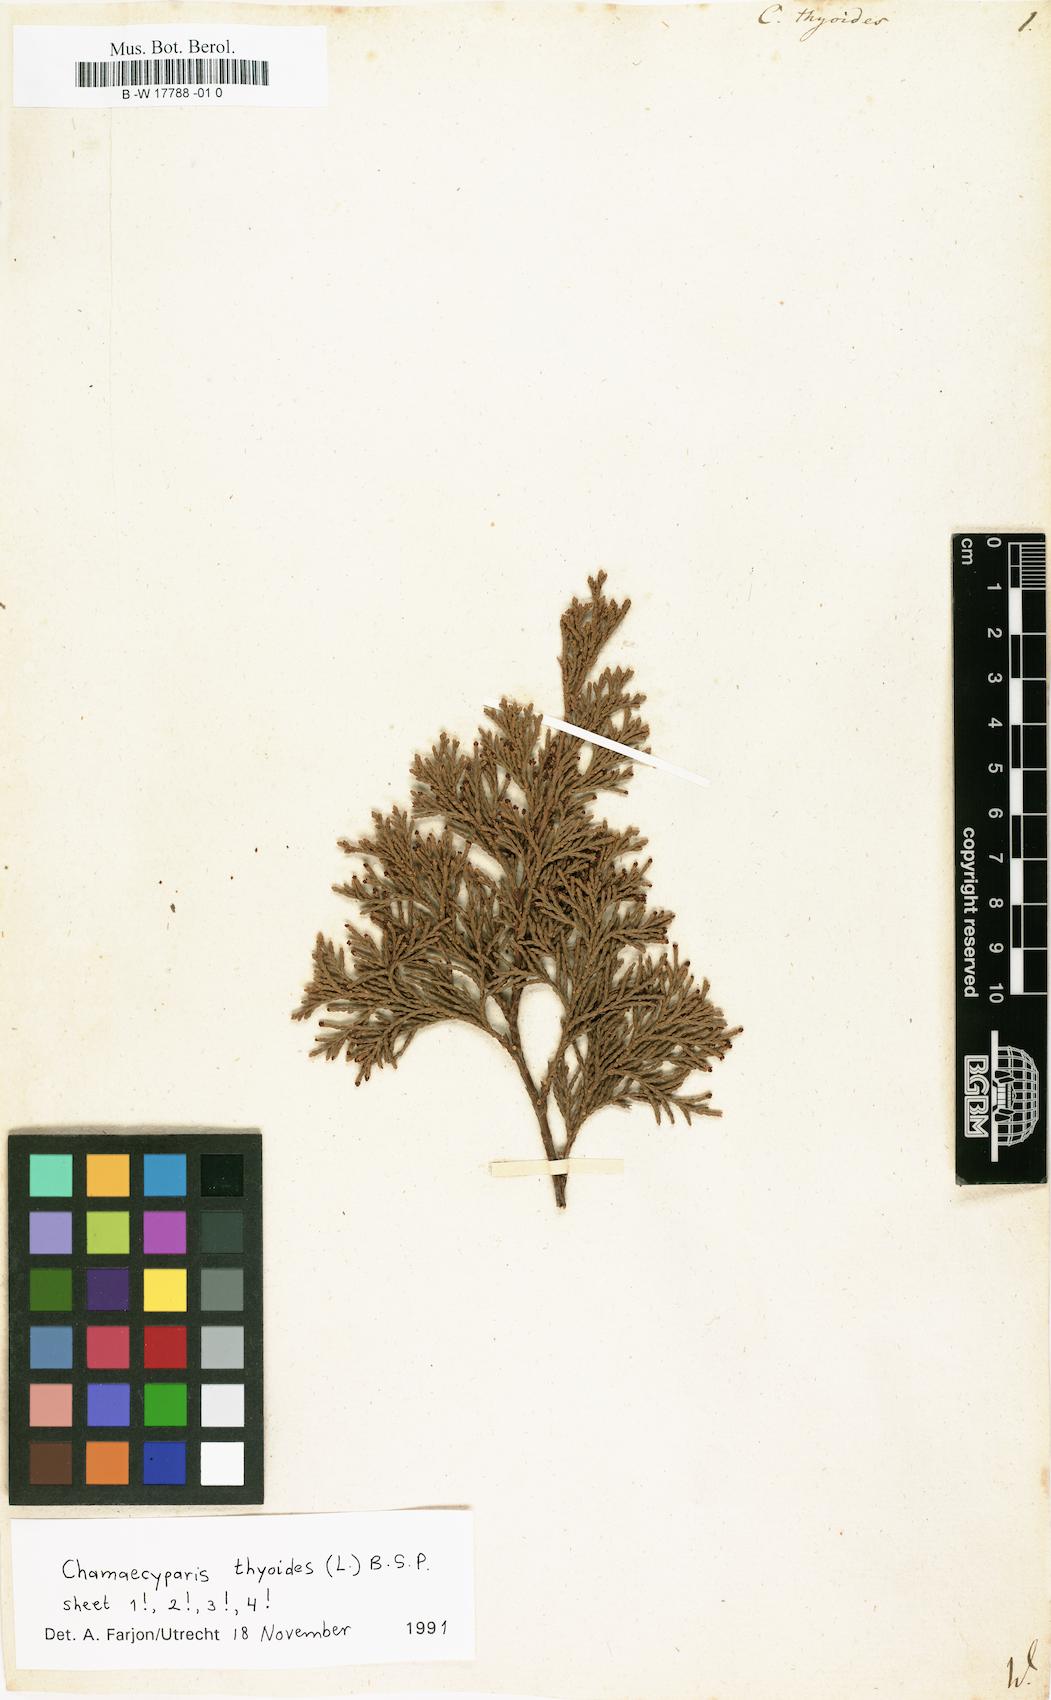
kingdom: Plantae
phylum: Tracheophyta
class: Pinopsida
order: Pinales
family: Cupressaceae
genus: Chamaecyparis
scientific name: Chamaecyparis thyoides
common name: Atlantic white cedar
